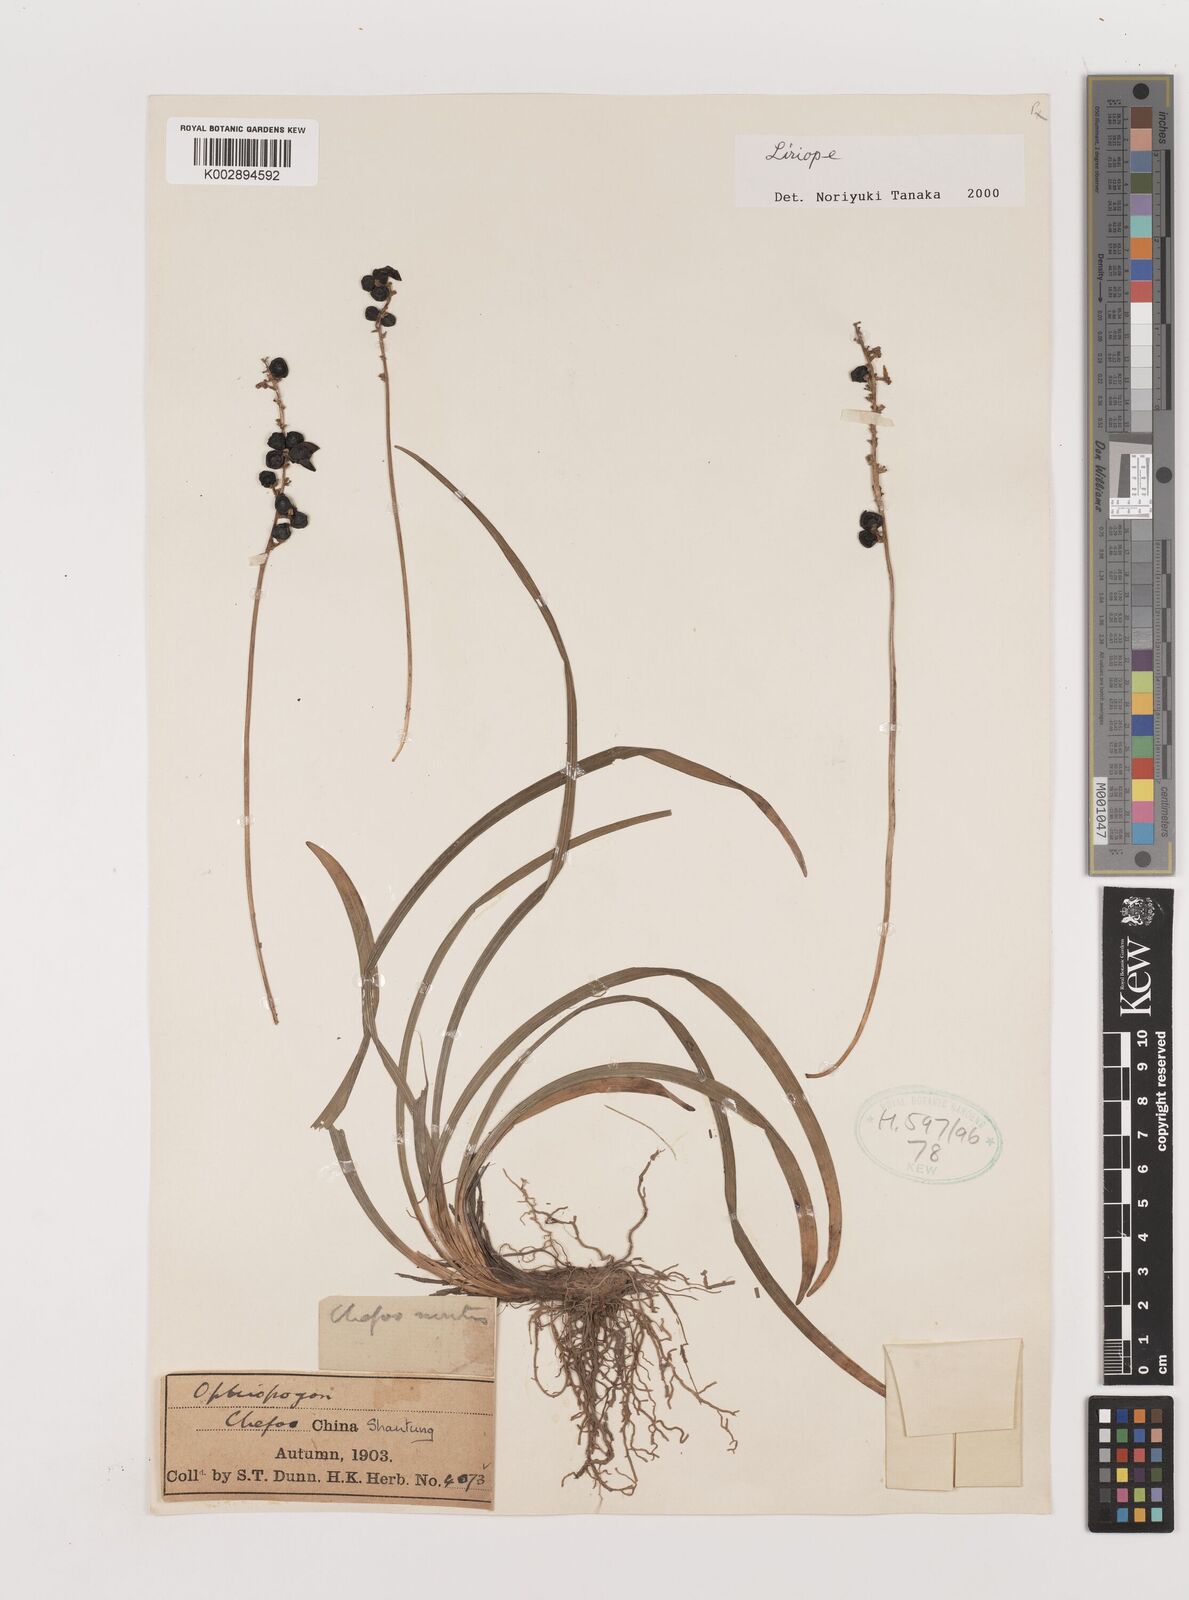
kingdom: Plantae
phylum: Tracheophyta
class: Liliopsida
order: Asparagales
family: Asparagaceae
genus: Liriope
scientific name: Liriope
